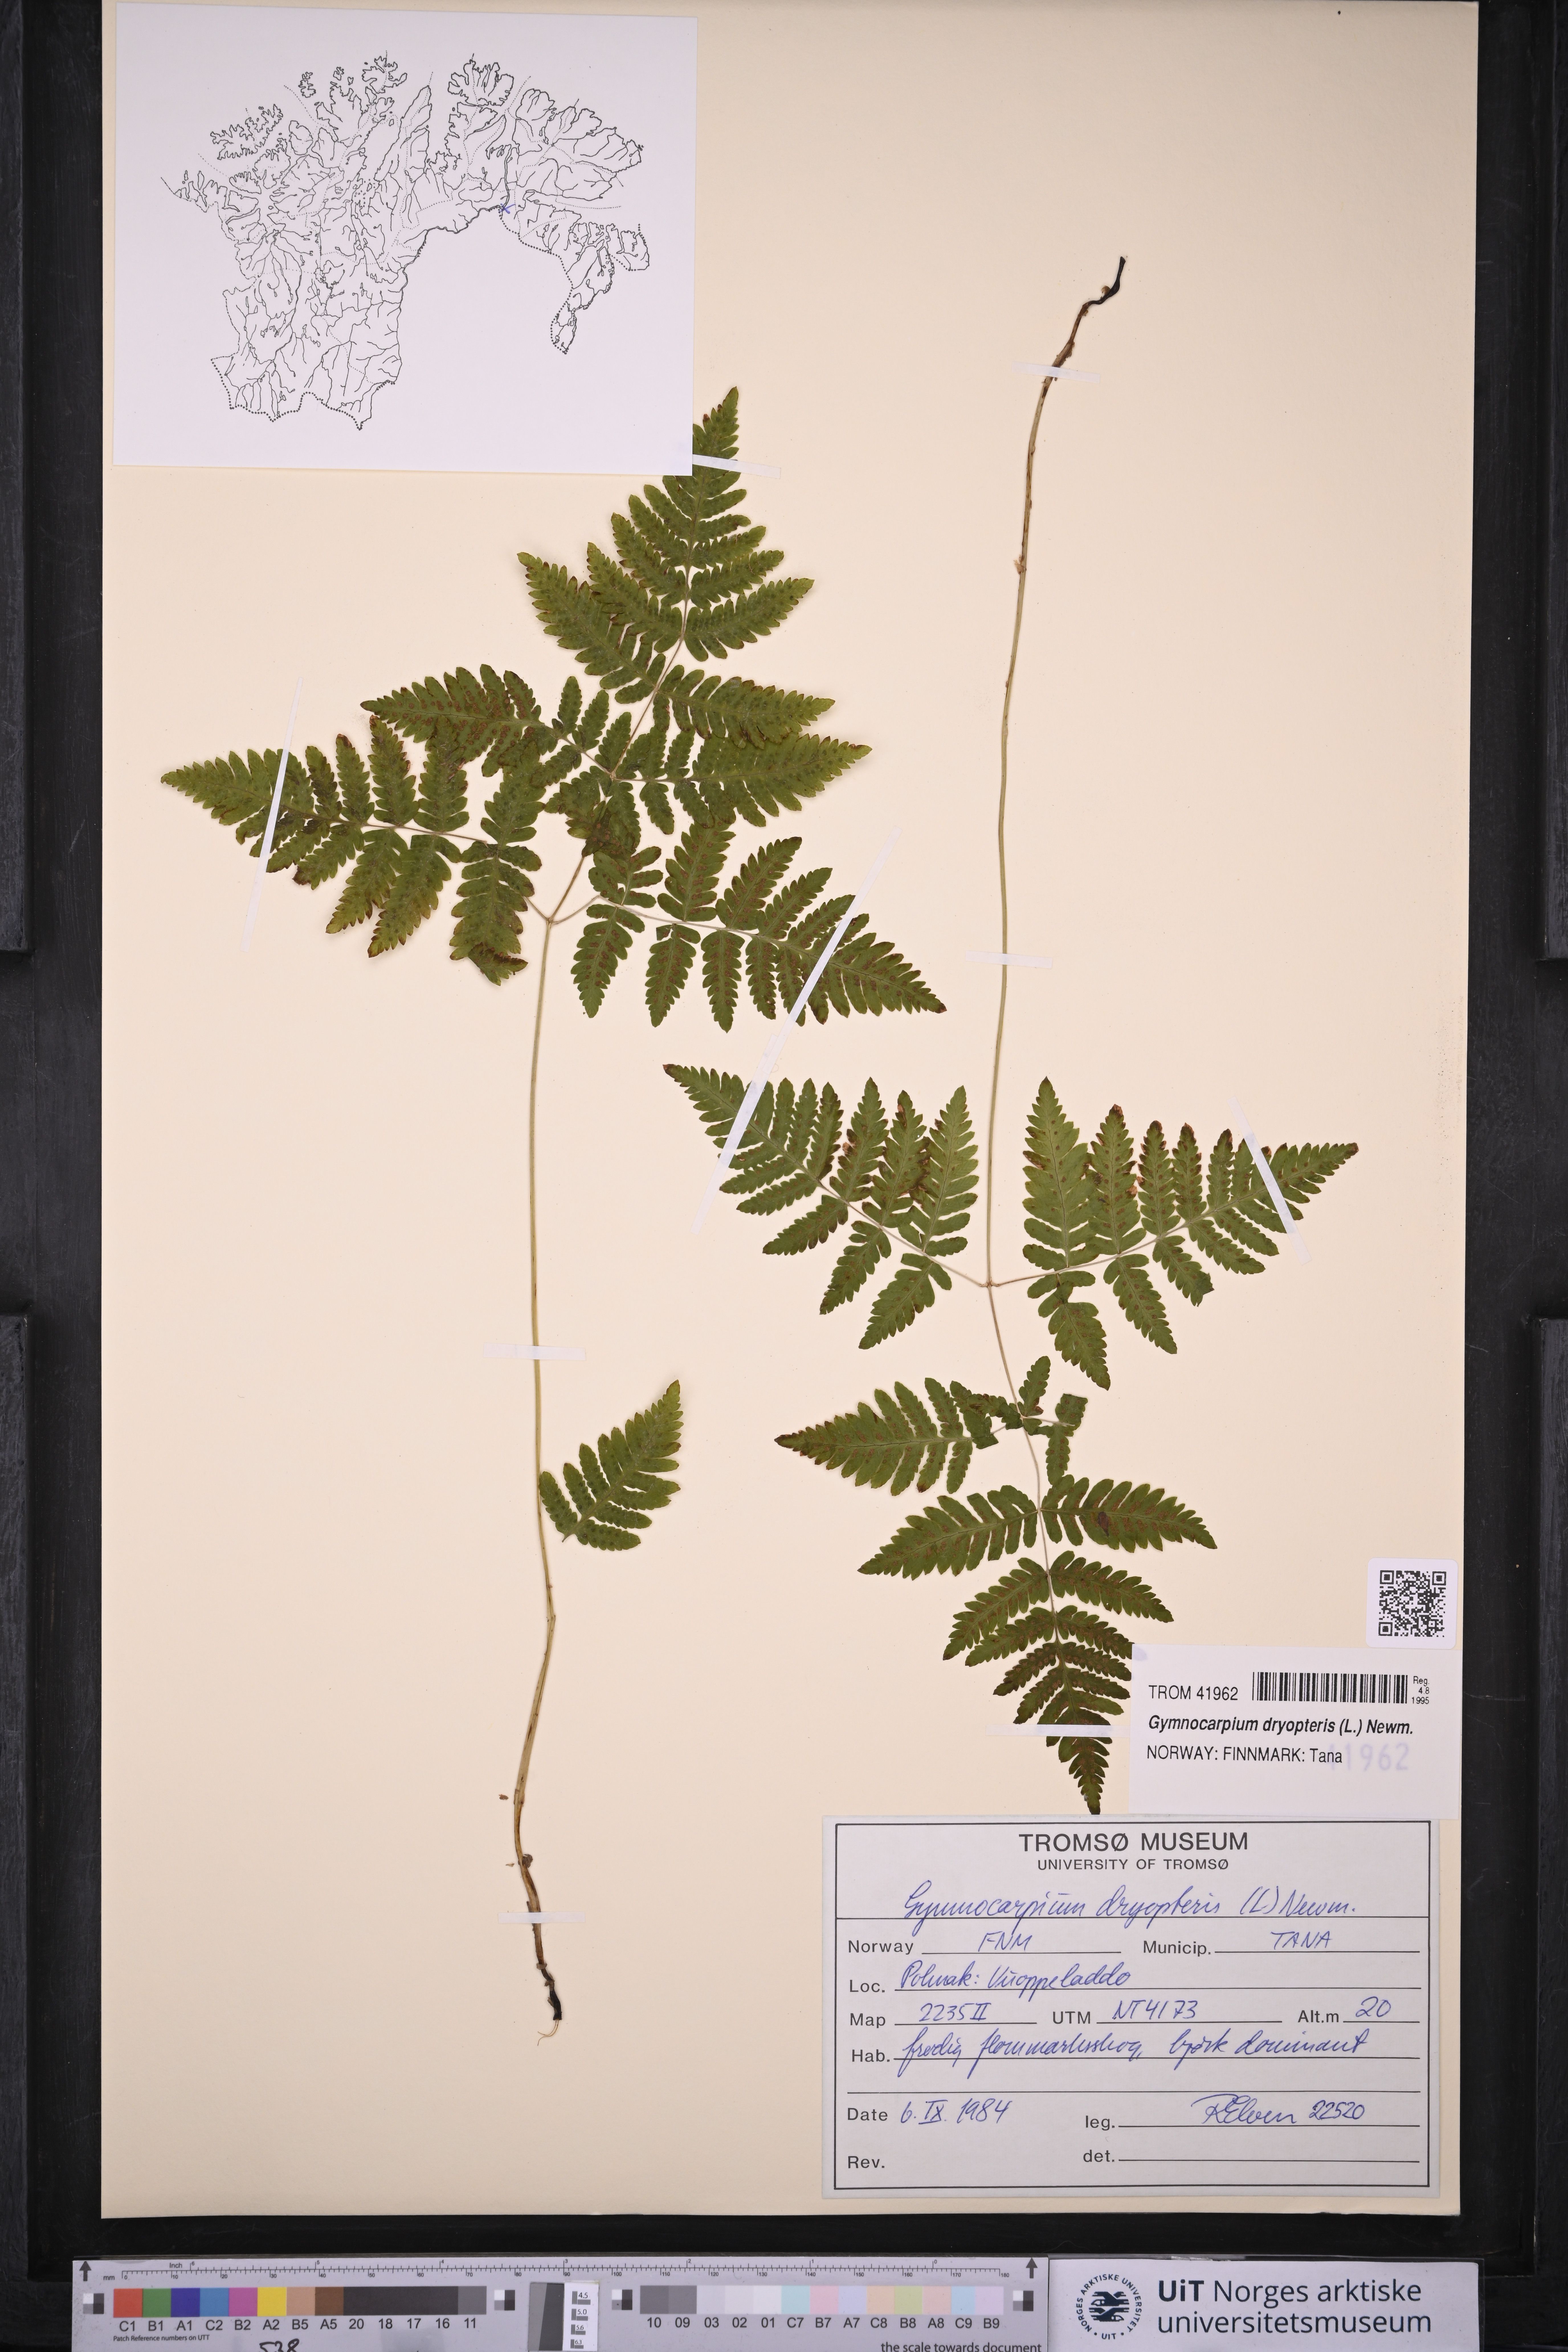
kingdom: Plantae
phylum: Tracheophyta
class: Polypodiopsida
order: Polypodiales
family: Cystopteridaceae
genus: Gymnocarpium
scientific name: Gymnocarpium dryopteris
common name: Oak fern
